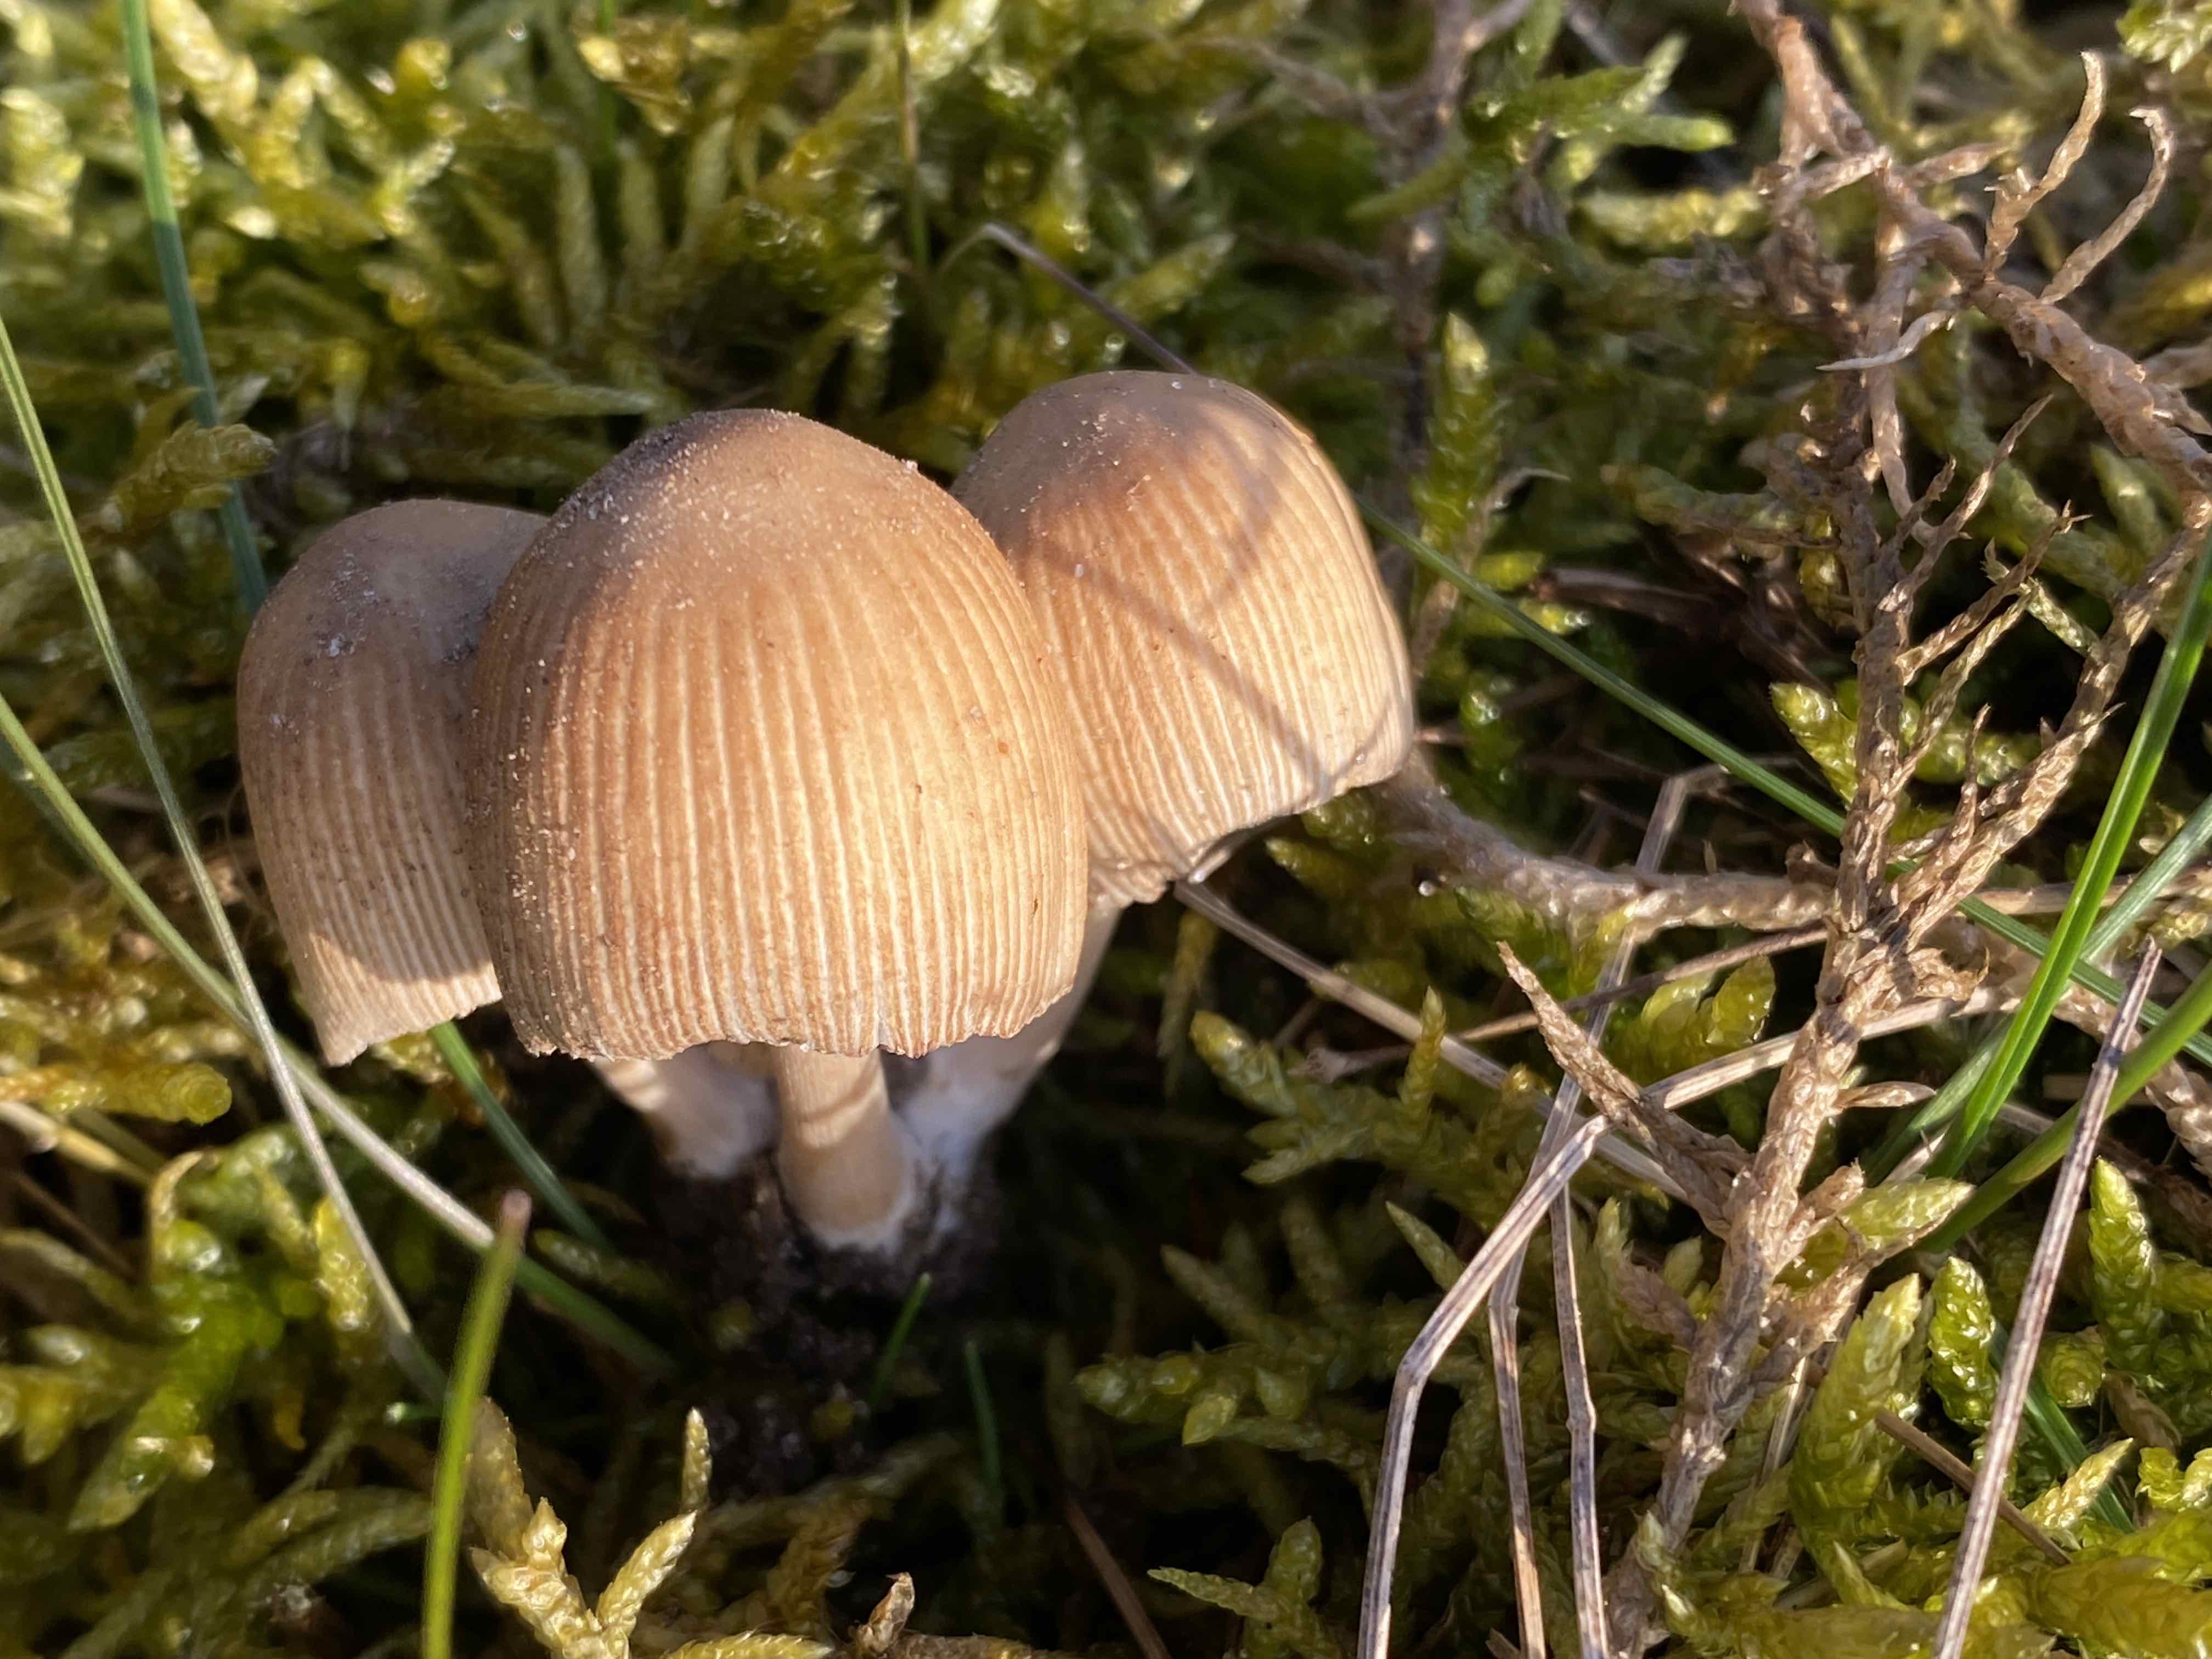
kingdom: Fungi
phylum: Basidiomycota
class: Agaricomycetes
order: Agaricales
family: Psathyrellaceae
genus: Coprinellus
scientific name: Coprinellus micaceus
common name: glimmer-blækhat
